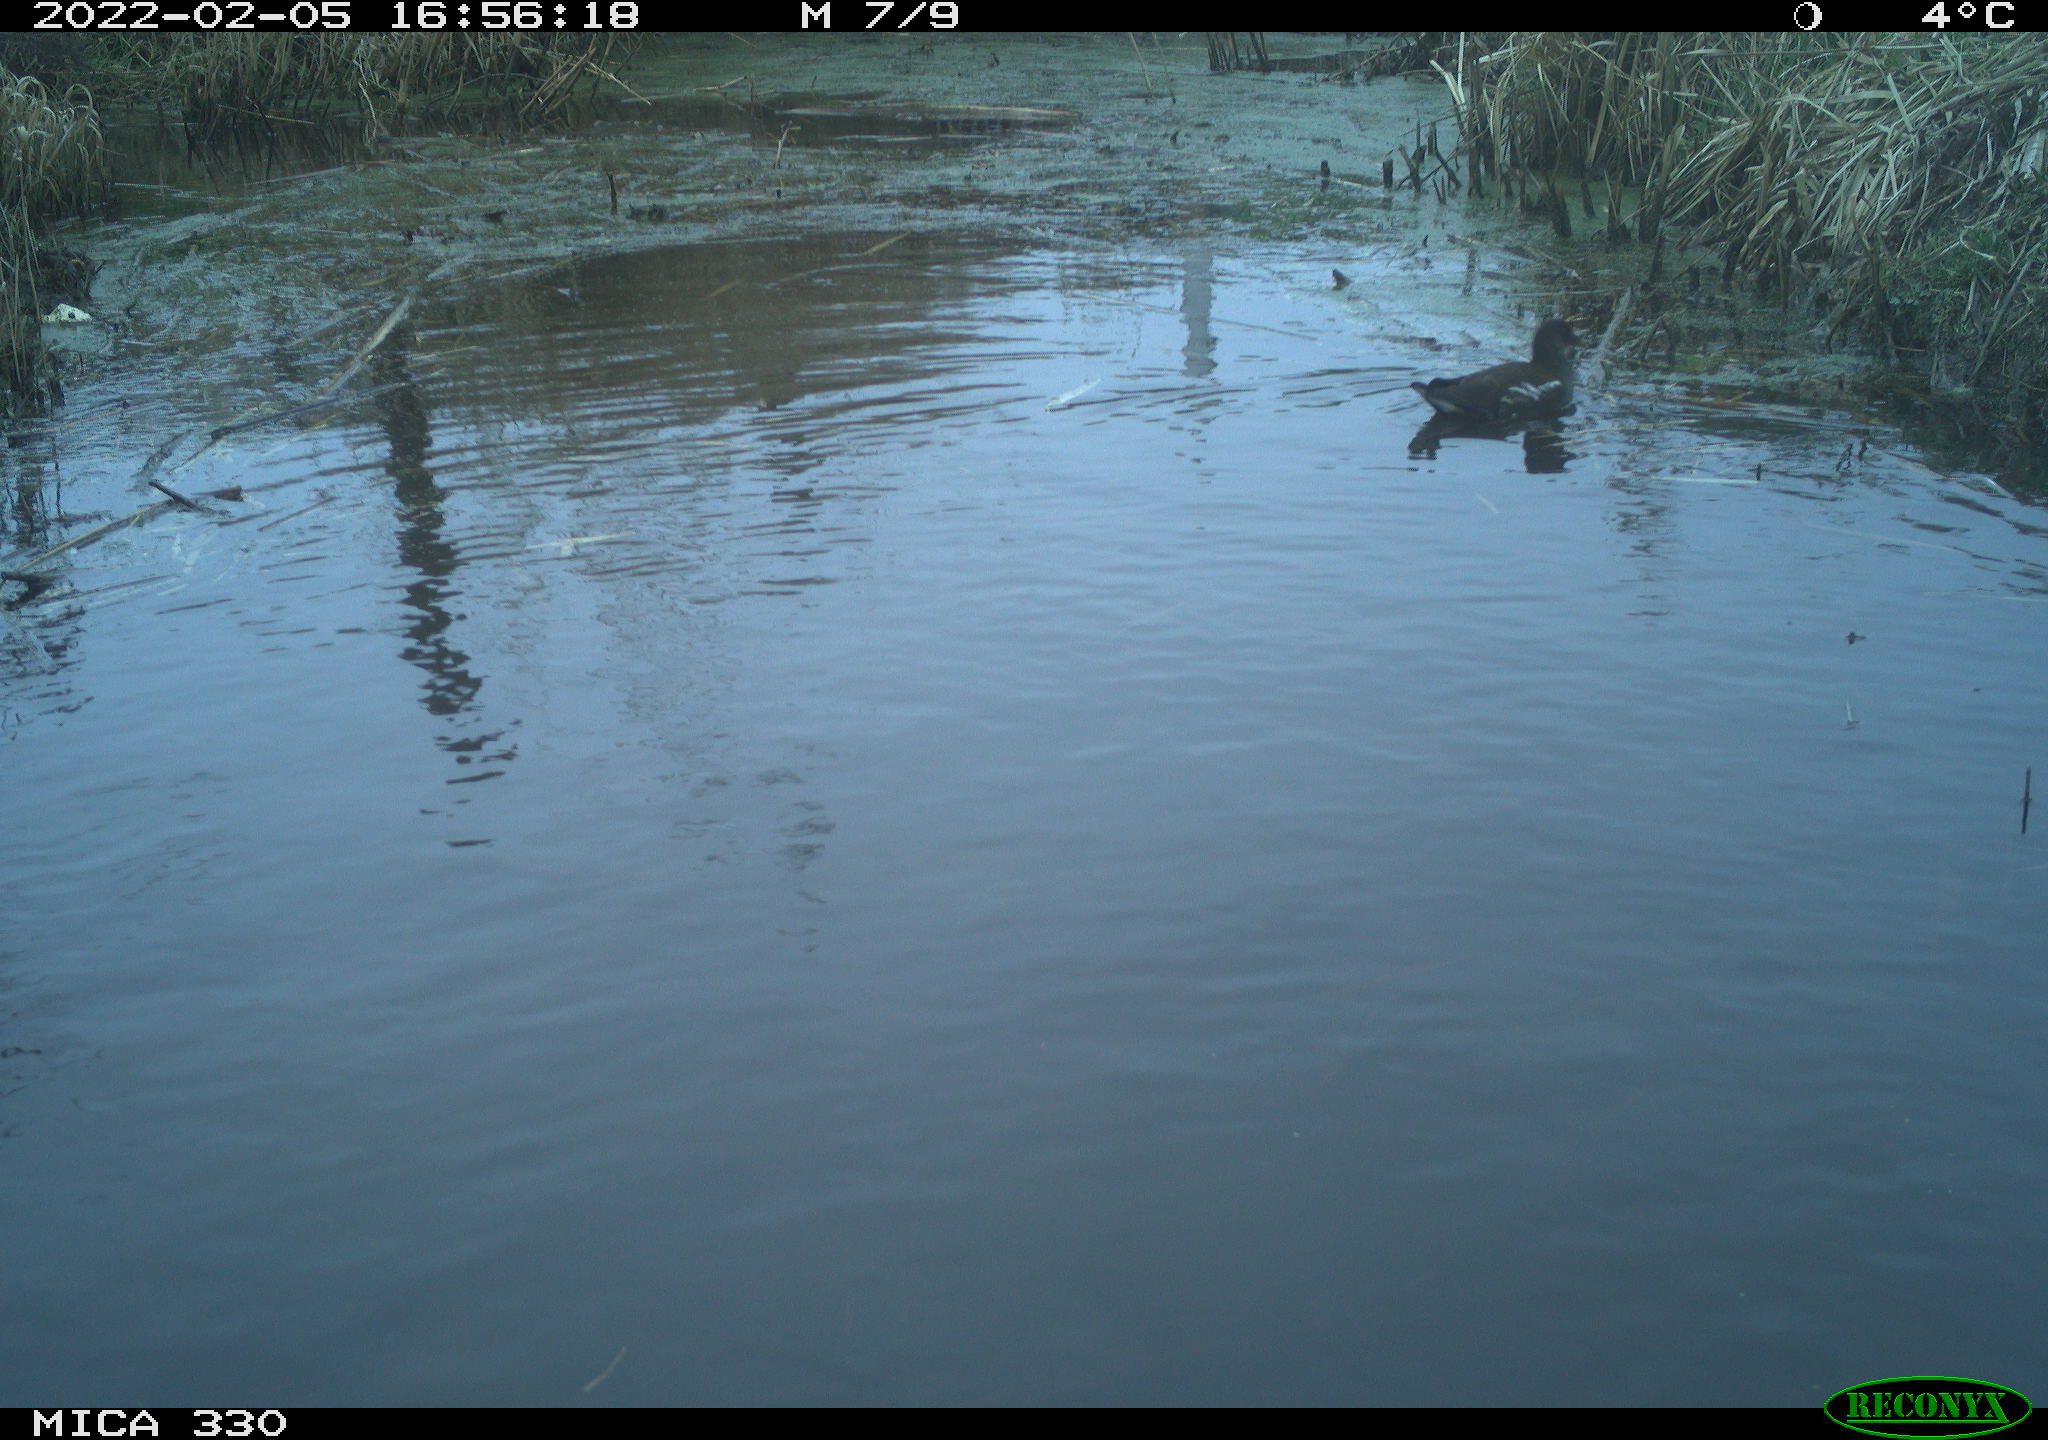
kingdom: Animalia
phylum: Chordata
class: Aves
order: Gruiformes
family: Rallidae
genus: Gallinula
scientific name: Gallinula chloropus
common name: Common moorhen
